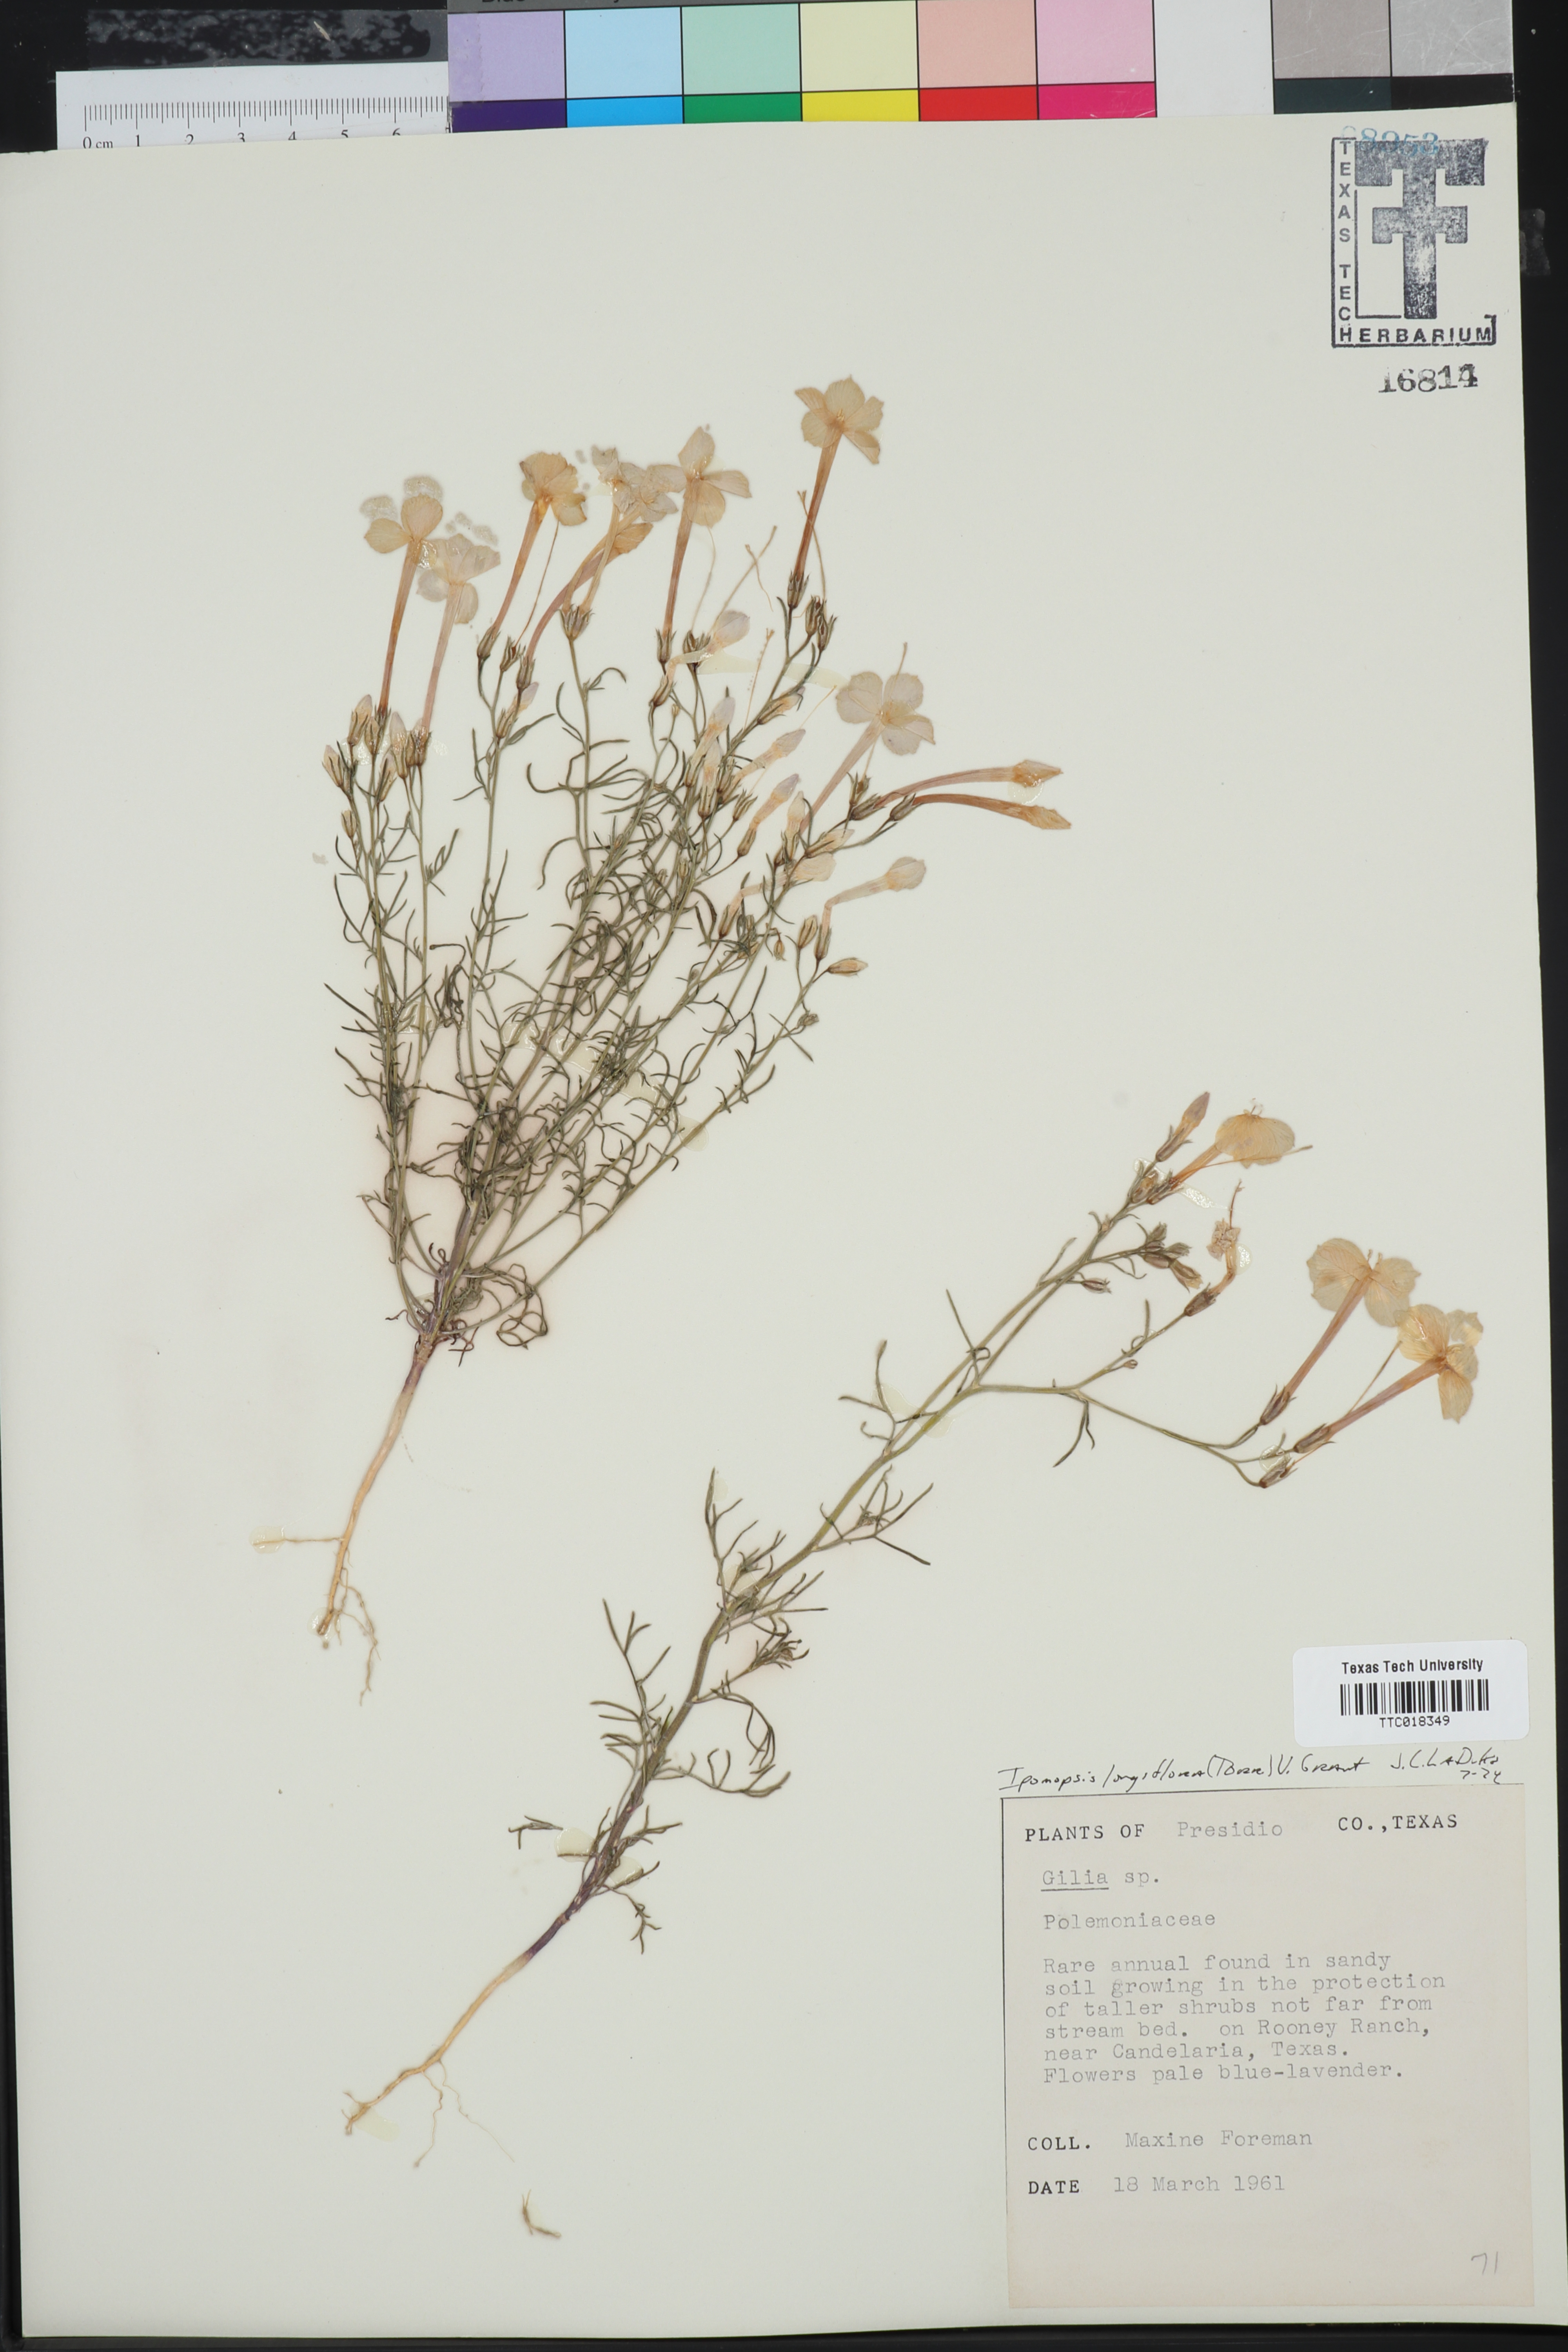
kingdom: Plantae
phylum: Tracheophyta
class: Magnoliopsida
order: Ericales
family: Polemoniaceae
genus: Ipomopsis
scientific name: Ipomopsis longiflora
